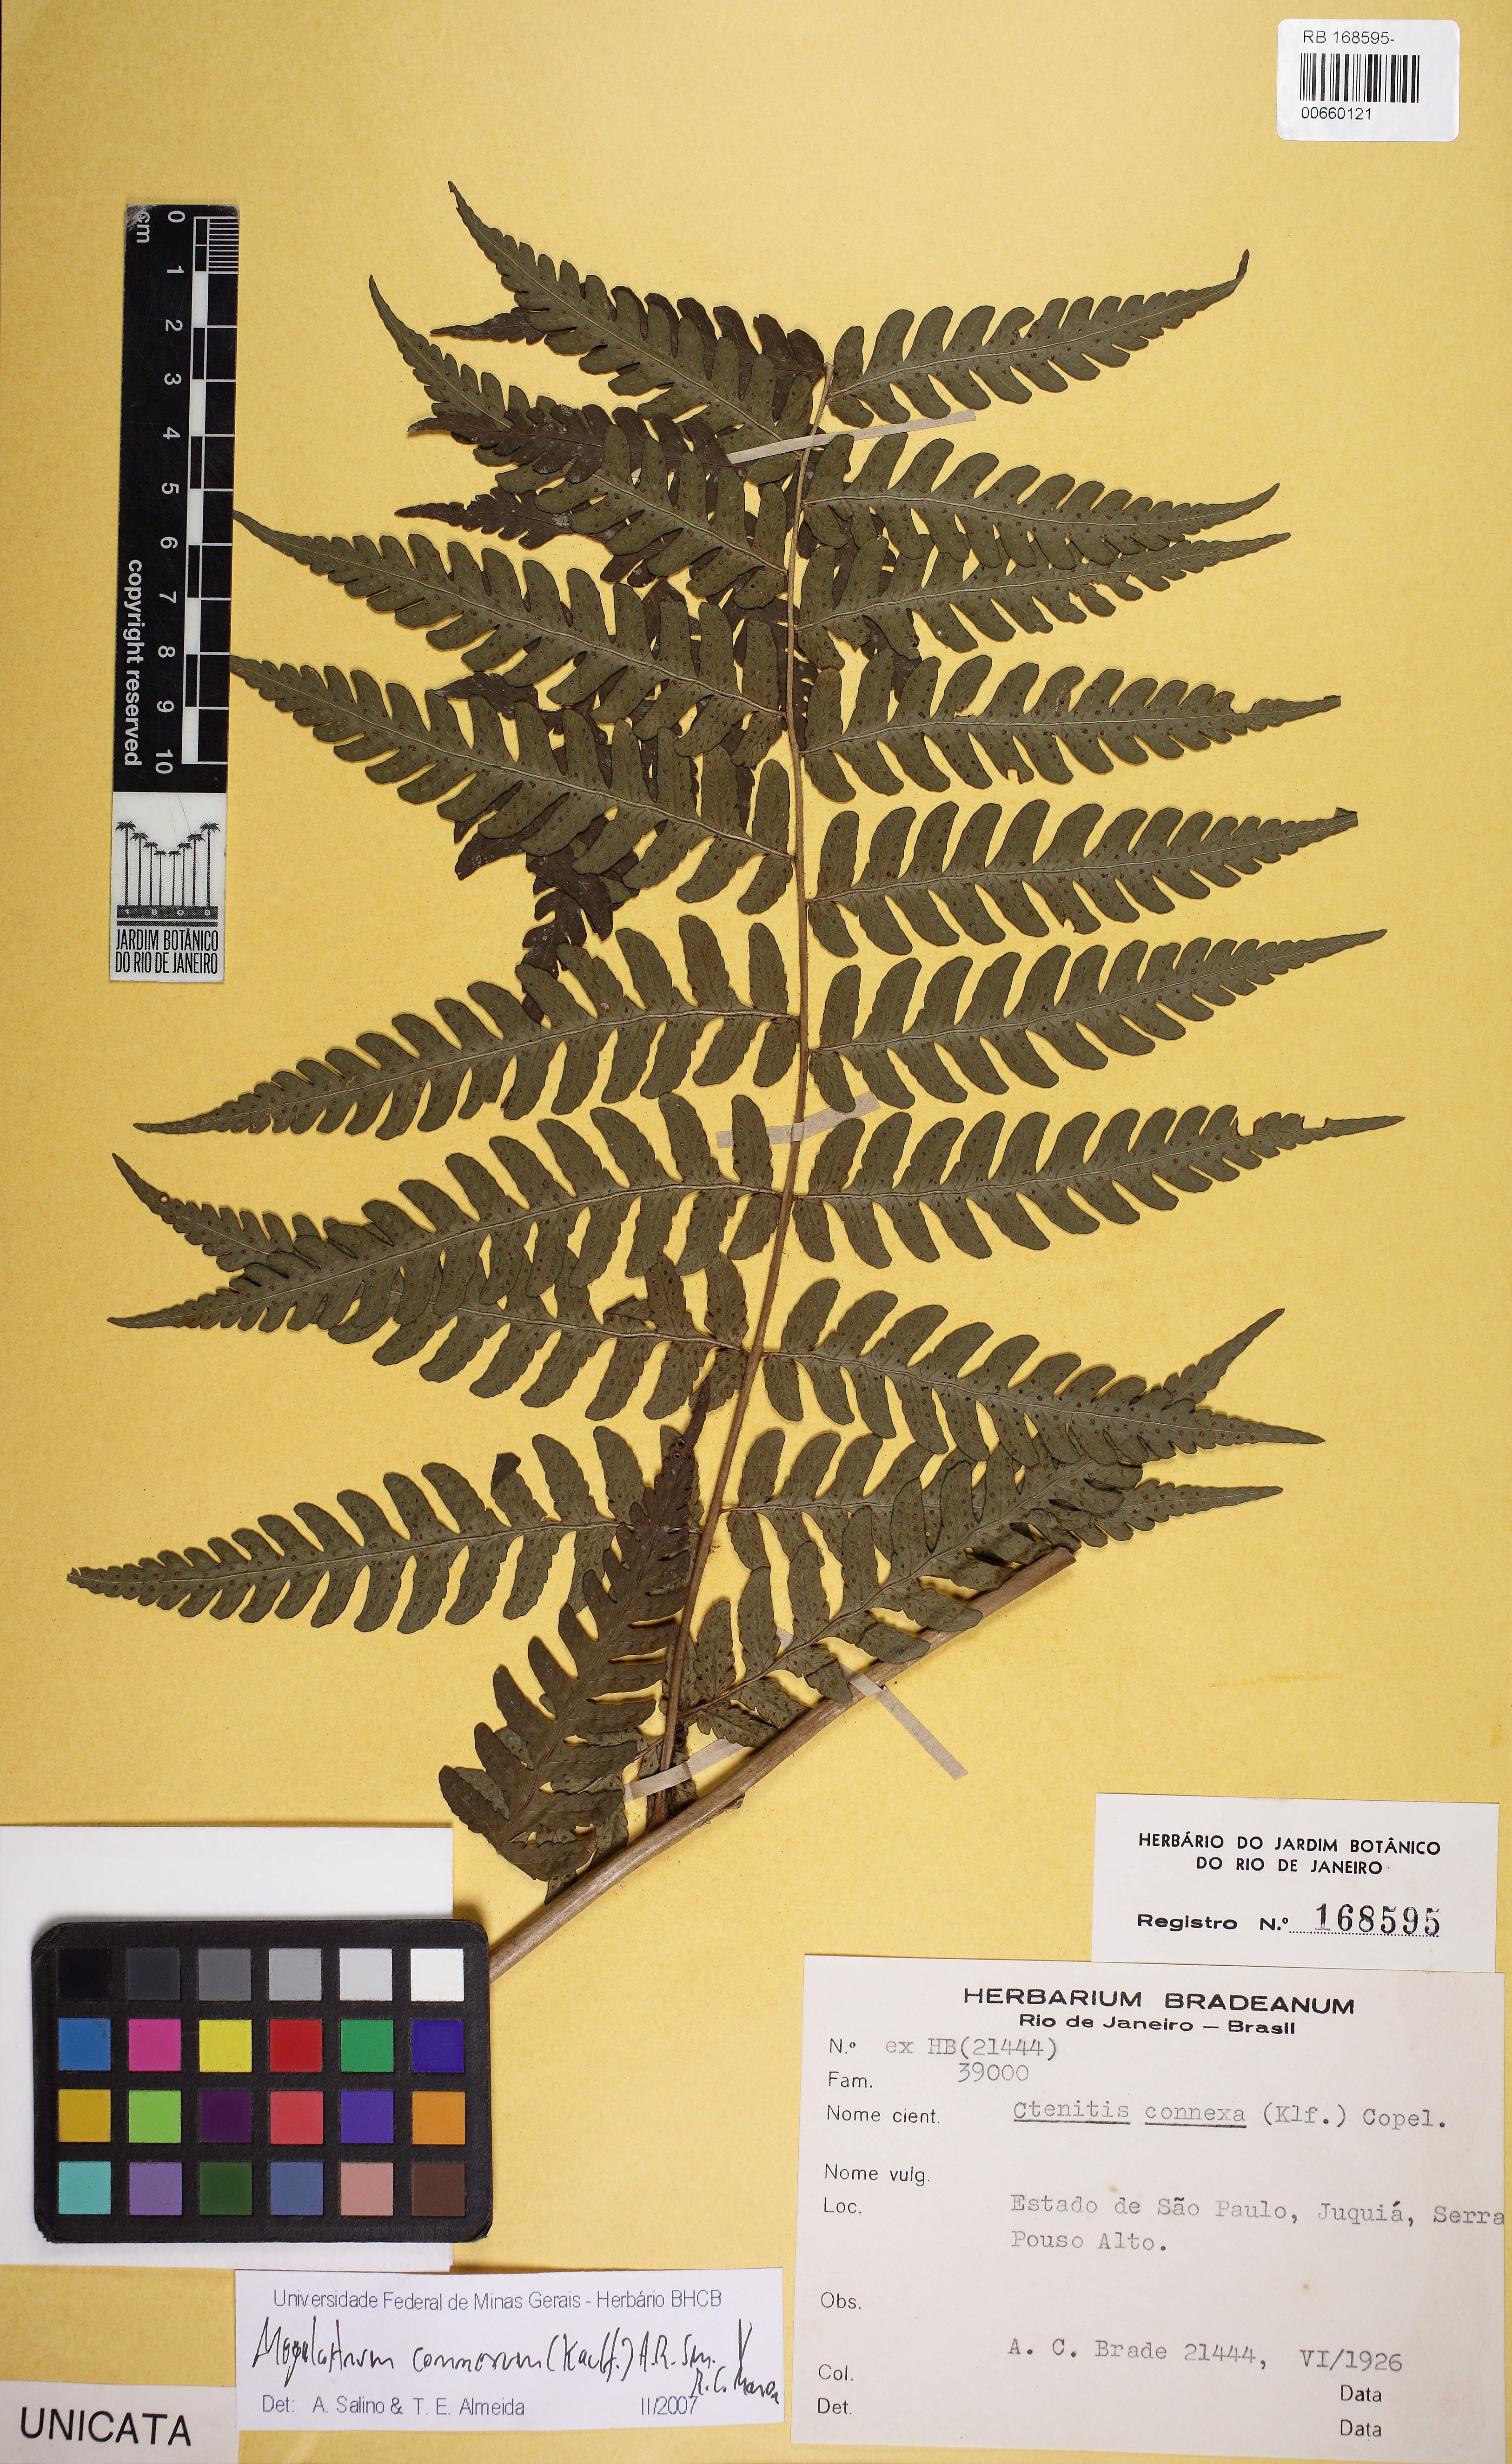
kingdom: Plantae
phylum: Tracheophyta
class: Polypodiopsida
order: Polypodiales
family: Dryopteridaceae
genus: Megalastrum
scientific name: Megalastrum connexum
